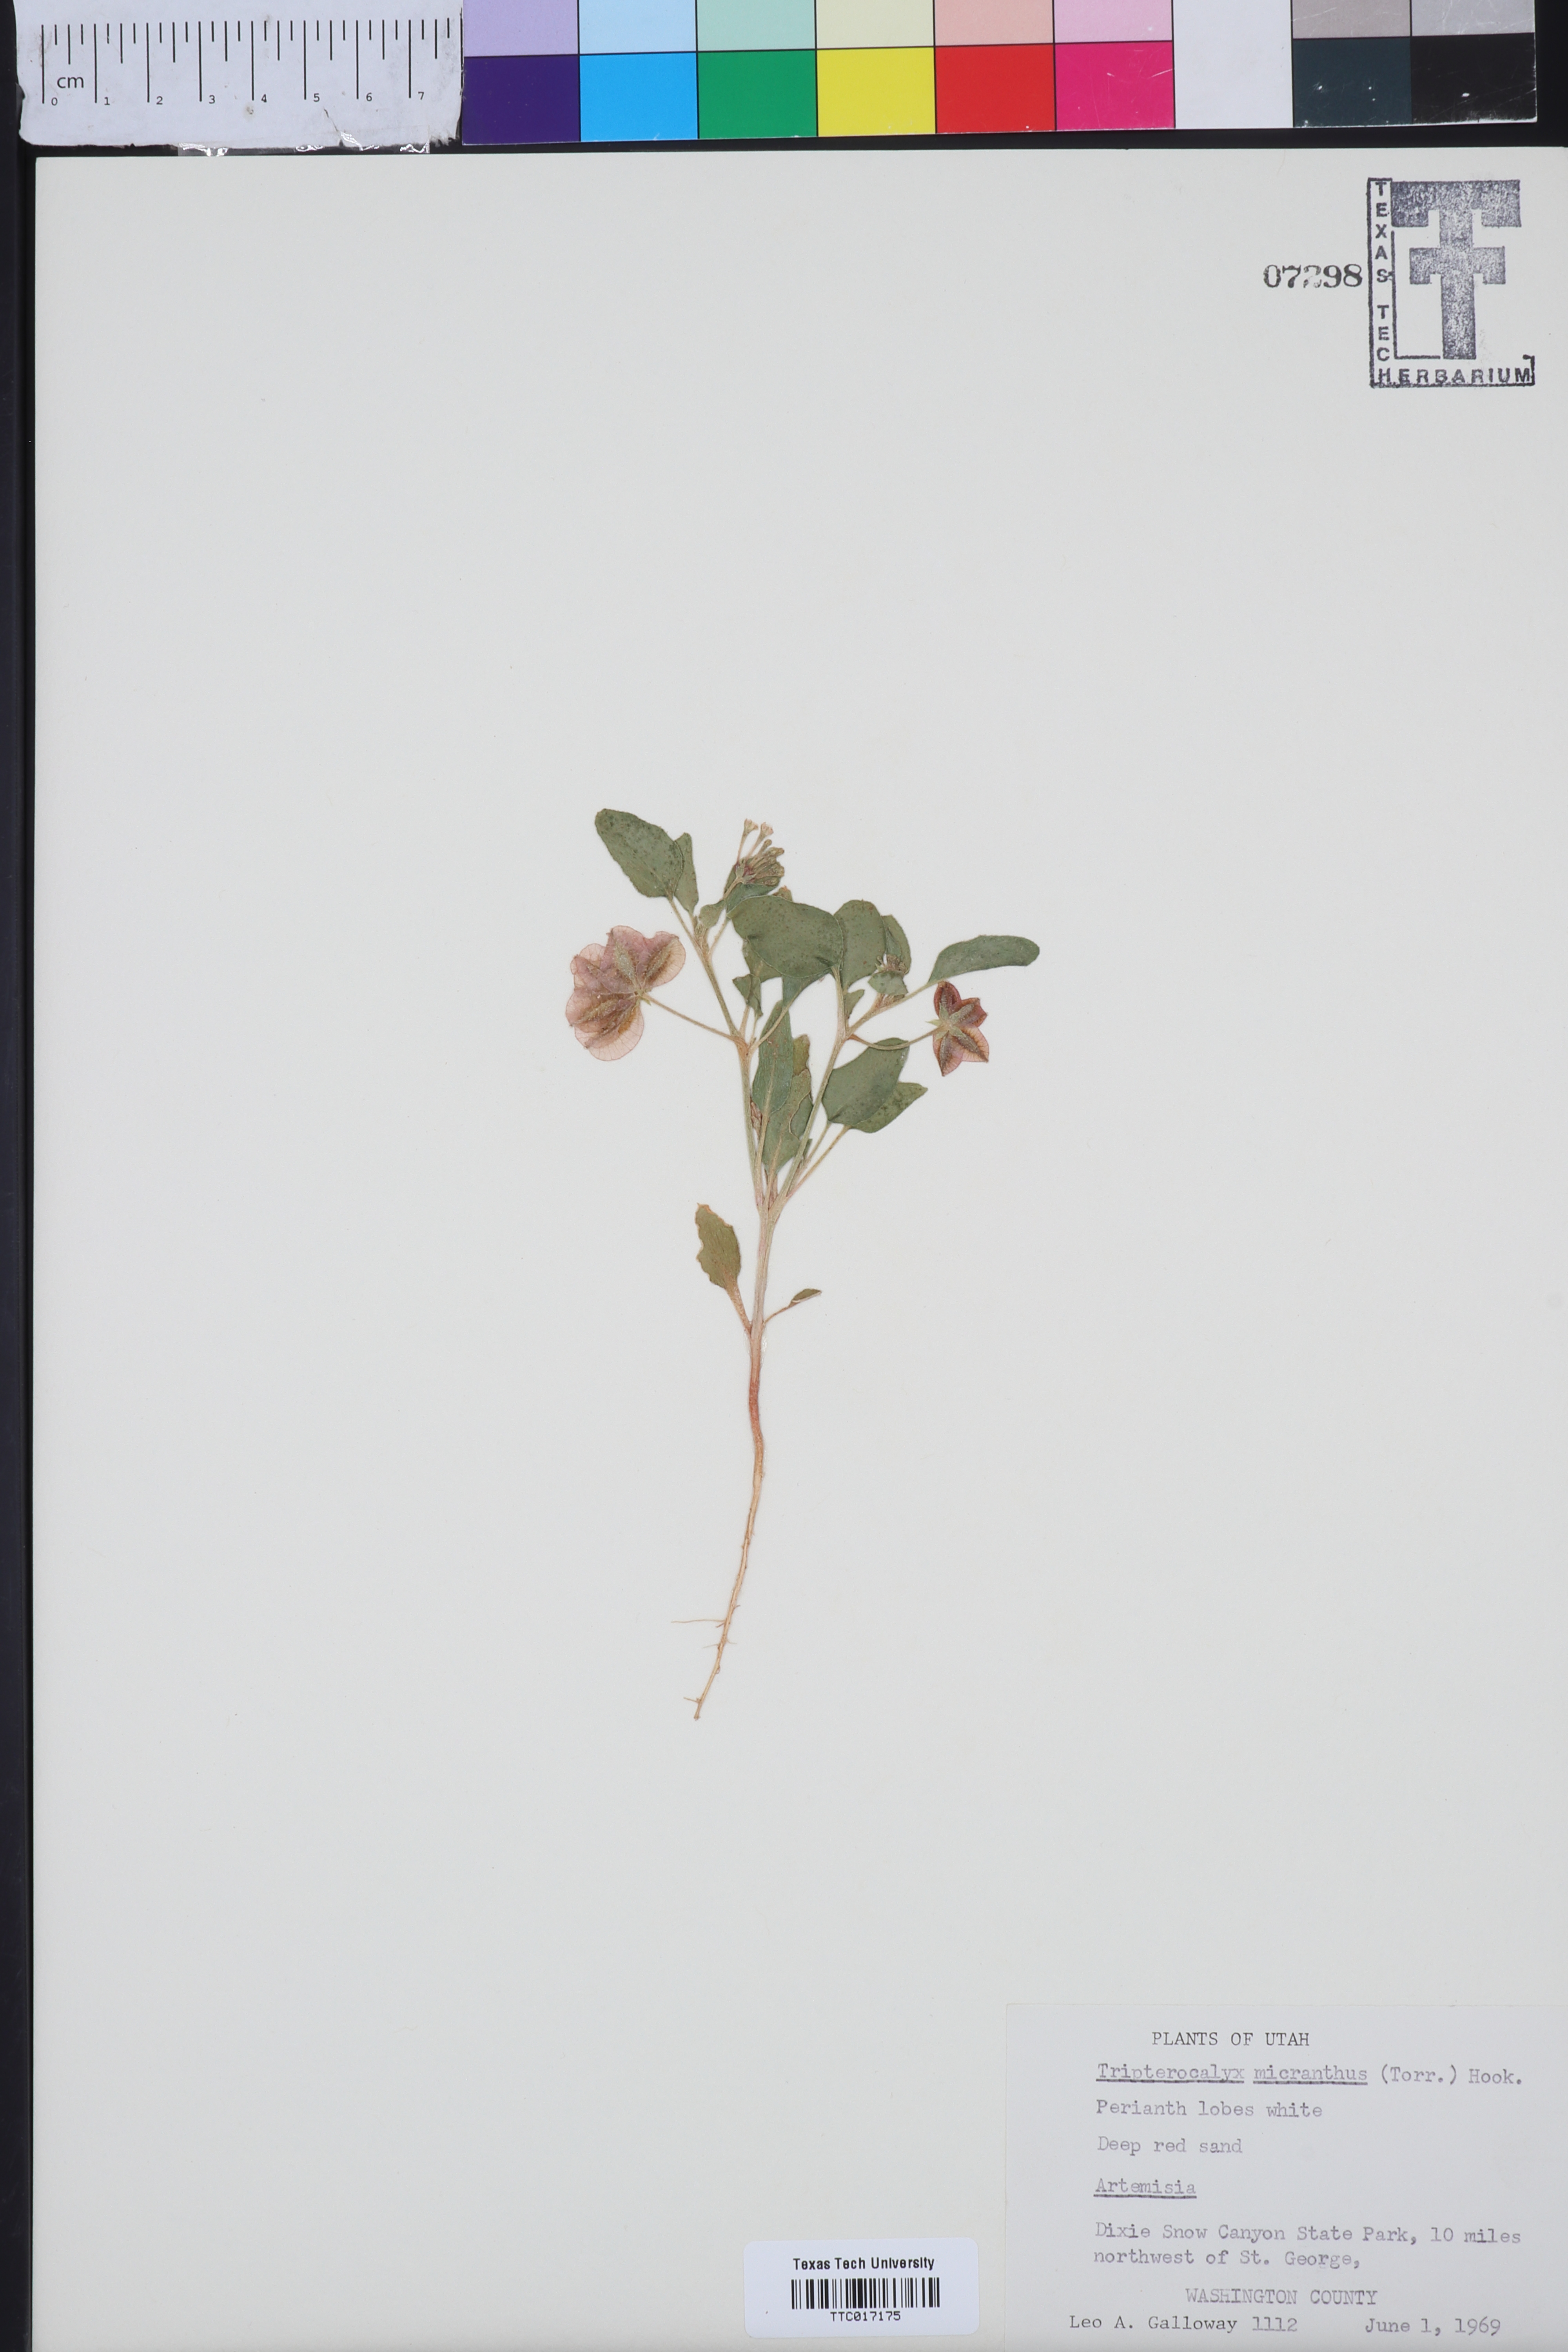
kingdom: Plantae
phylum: Tracheophyta
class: Magnoliopsida
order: Caryophyllales
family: Nyctaginaceae
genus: Tripterocalyx
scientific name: Tripterocalyx micranthus
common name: Small-flowered sand-verbena
